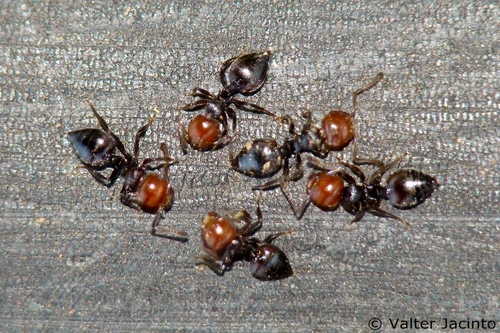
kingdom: Animalia
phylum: Arthropoda
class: Insecta
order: Hymenoptera
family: Formicidae
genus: Crematogaster
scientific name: Crematogaster scutellaris
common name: Fourmi du liège
